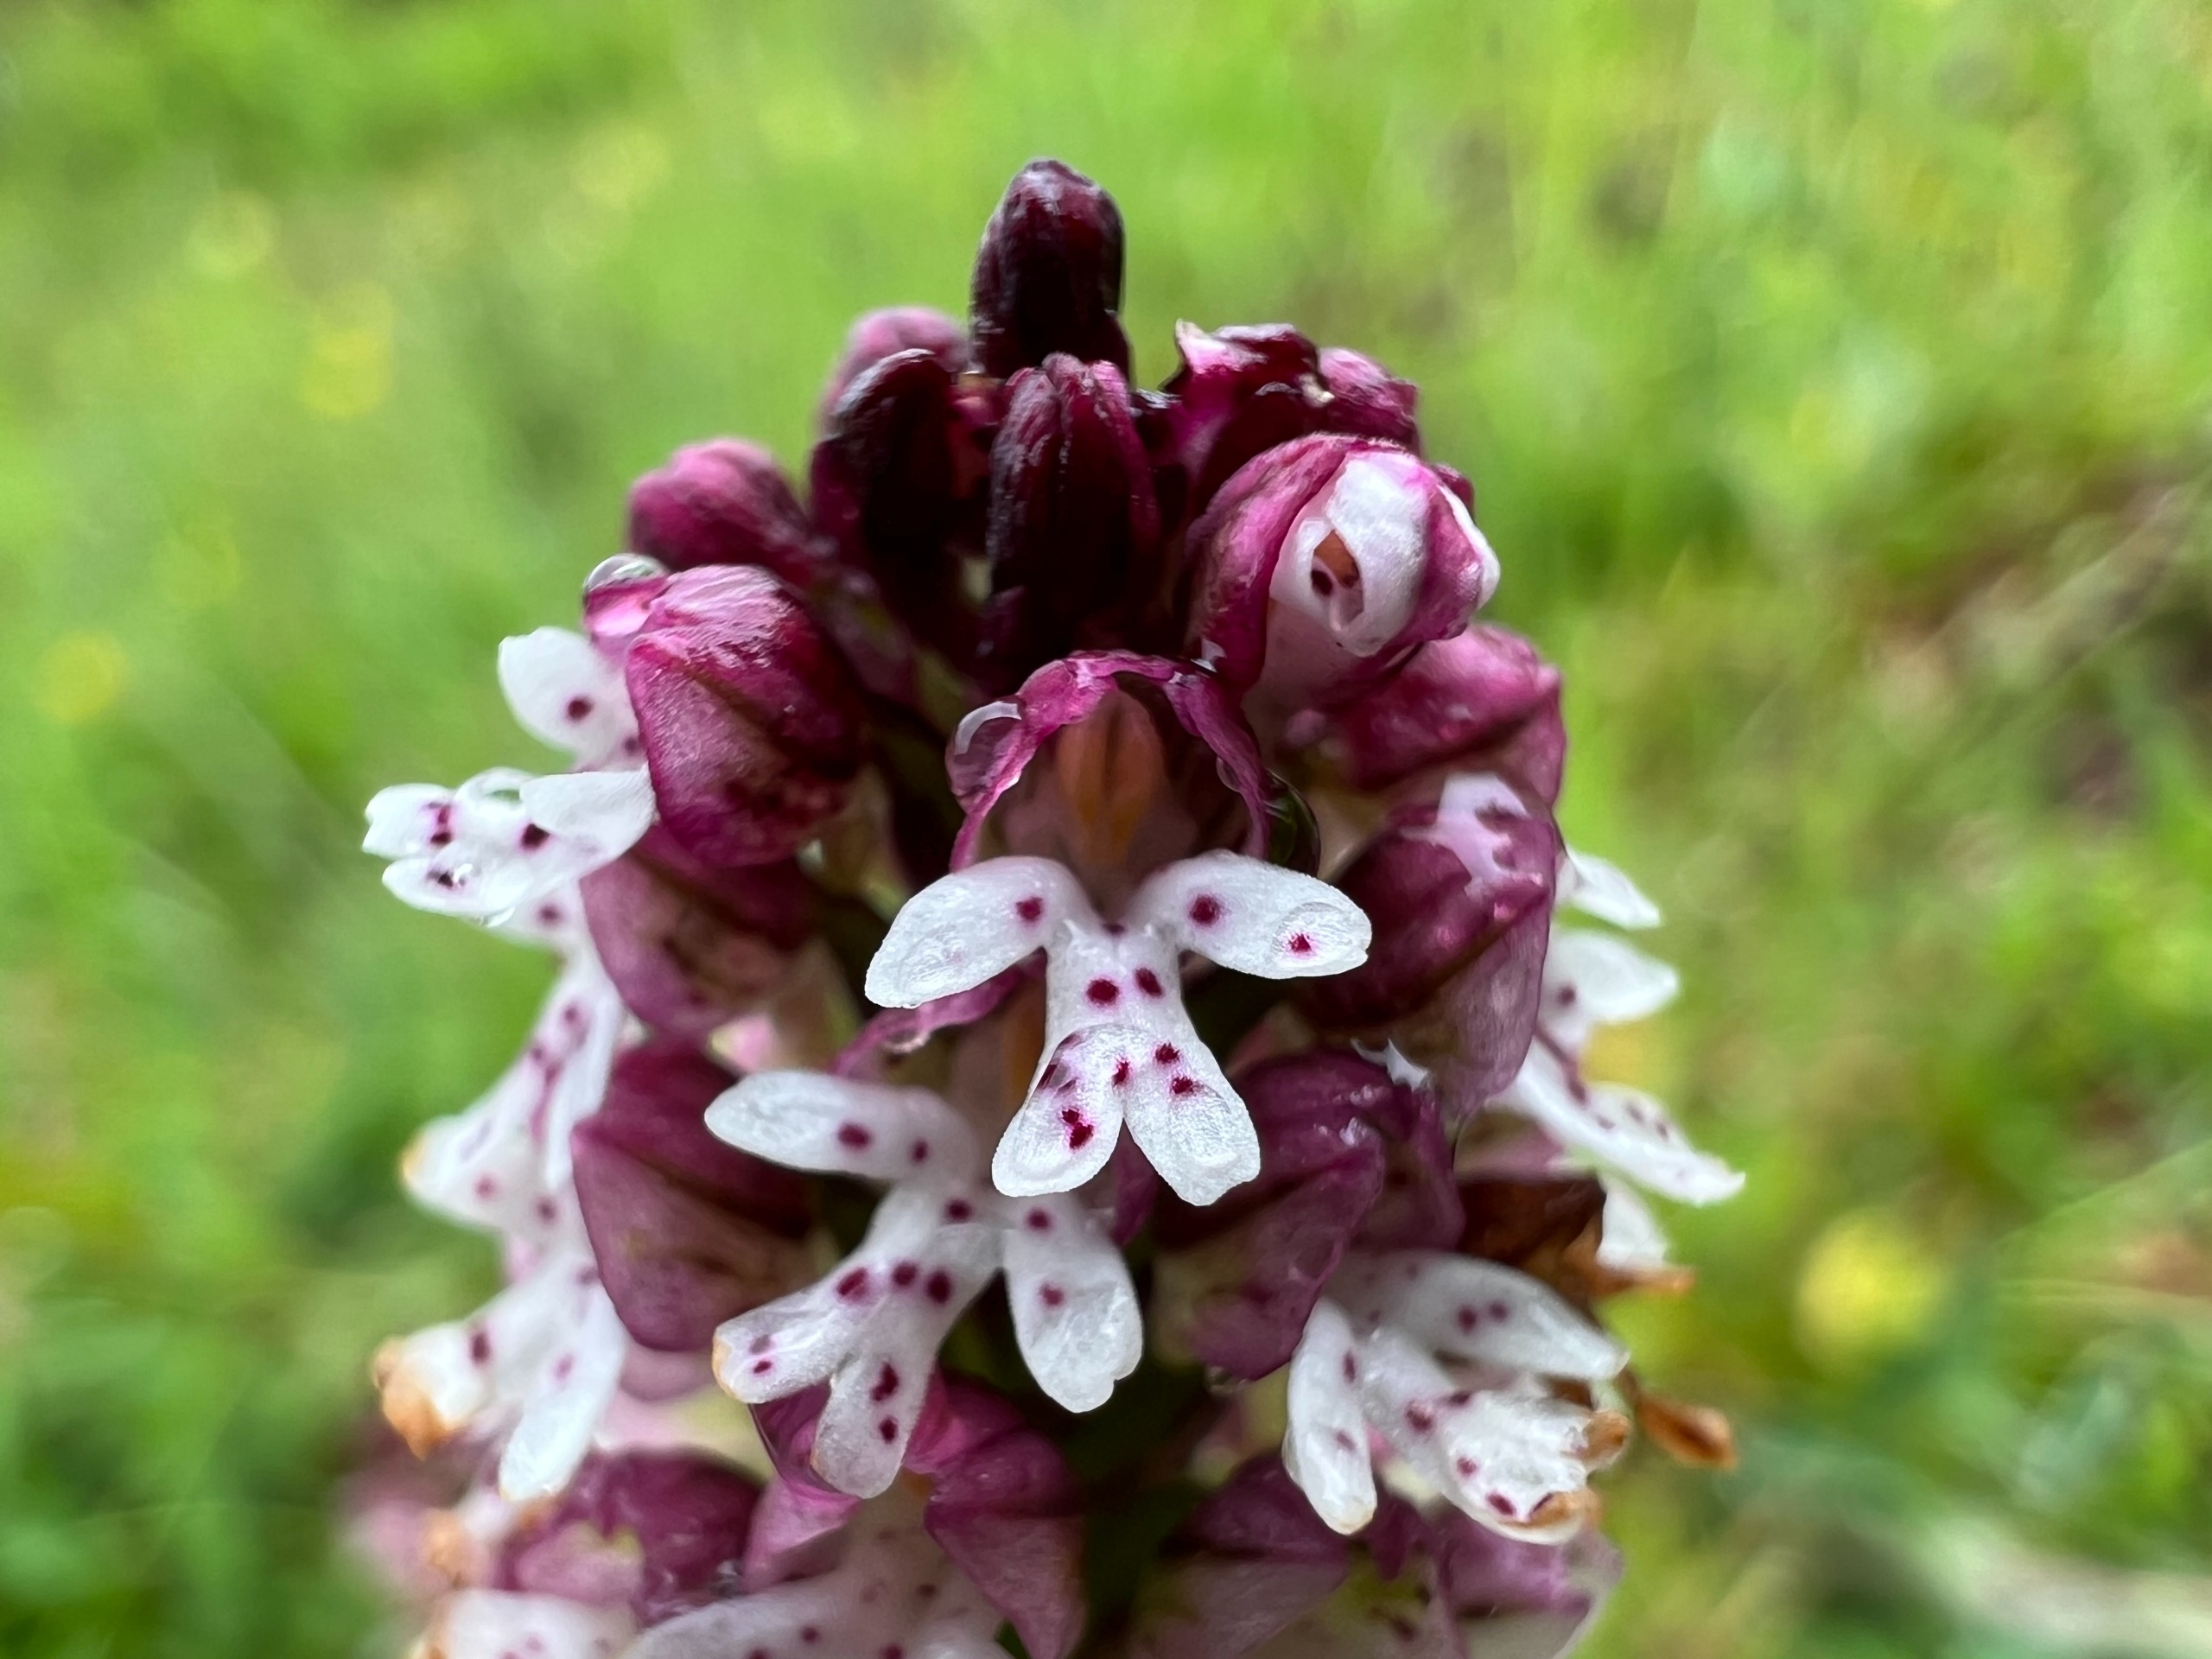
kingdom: Plantae
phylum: Tracheophyta
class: Liliopsida
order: Asparagales
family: Orchidaceae
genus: Neotinea
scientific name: Neotinea ustulata
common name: Bakkegøgeurt
